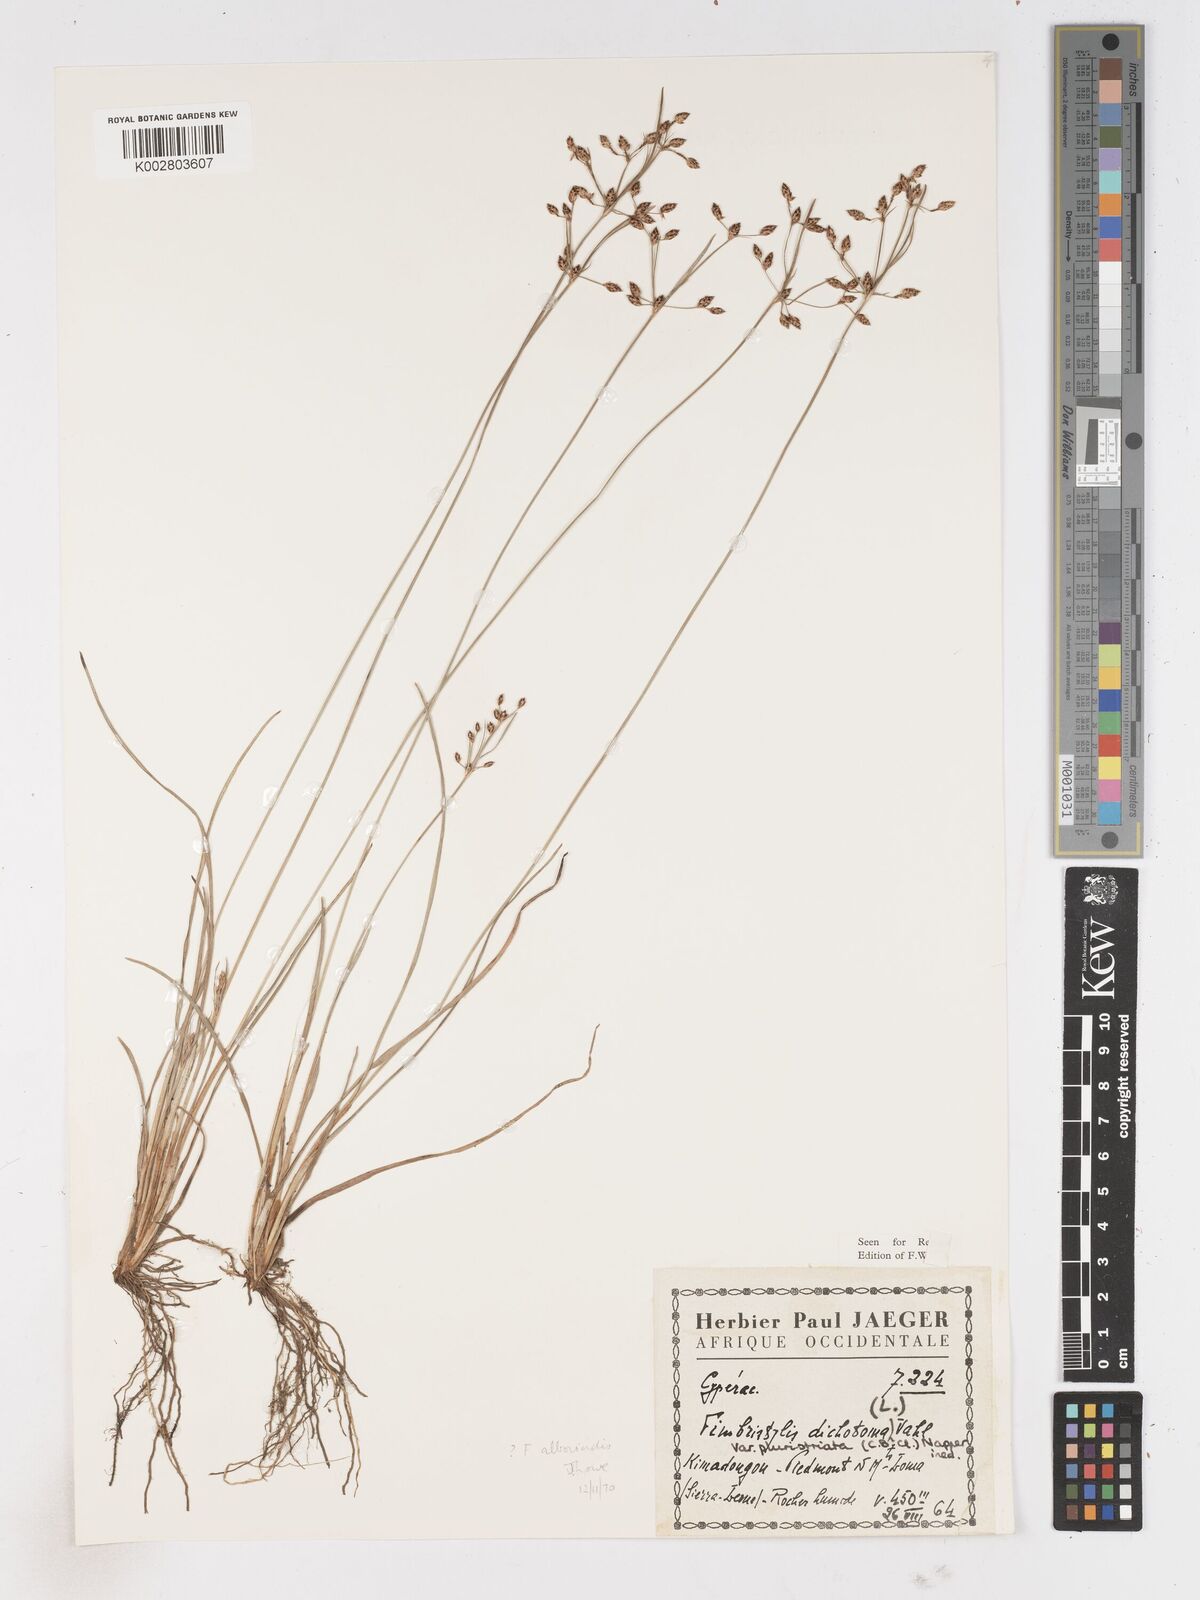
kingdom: Plantae
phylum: Tracheophyta
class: Liliopsida
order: Poales
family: Cyperaceae
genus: Fimbristylis
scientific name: Fimbristylis dichotoma
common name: Forked fimbry
